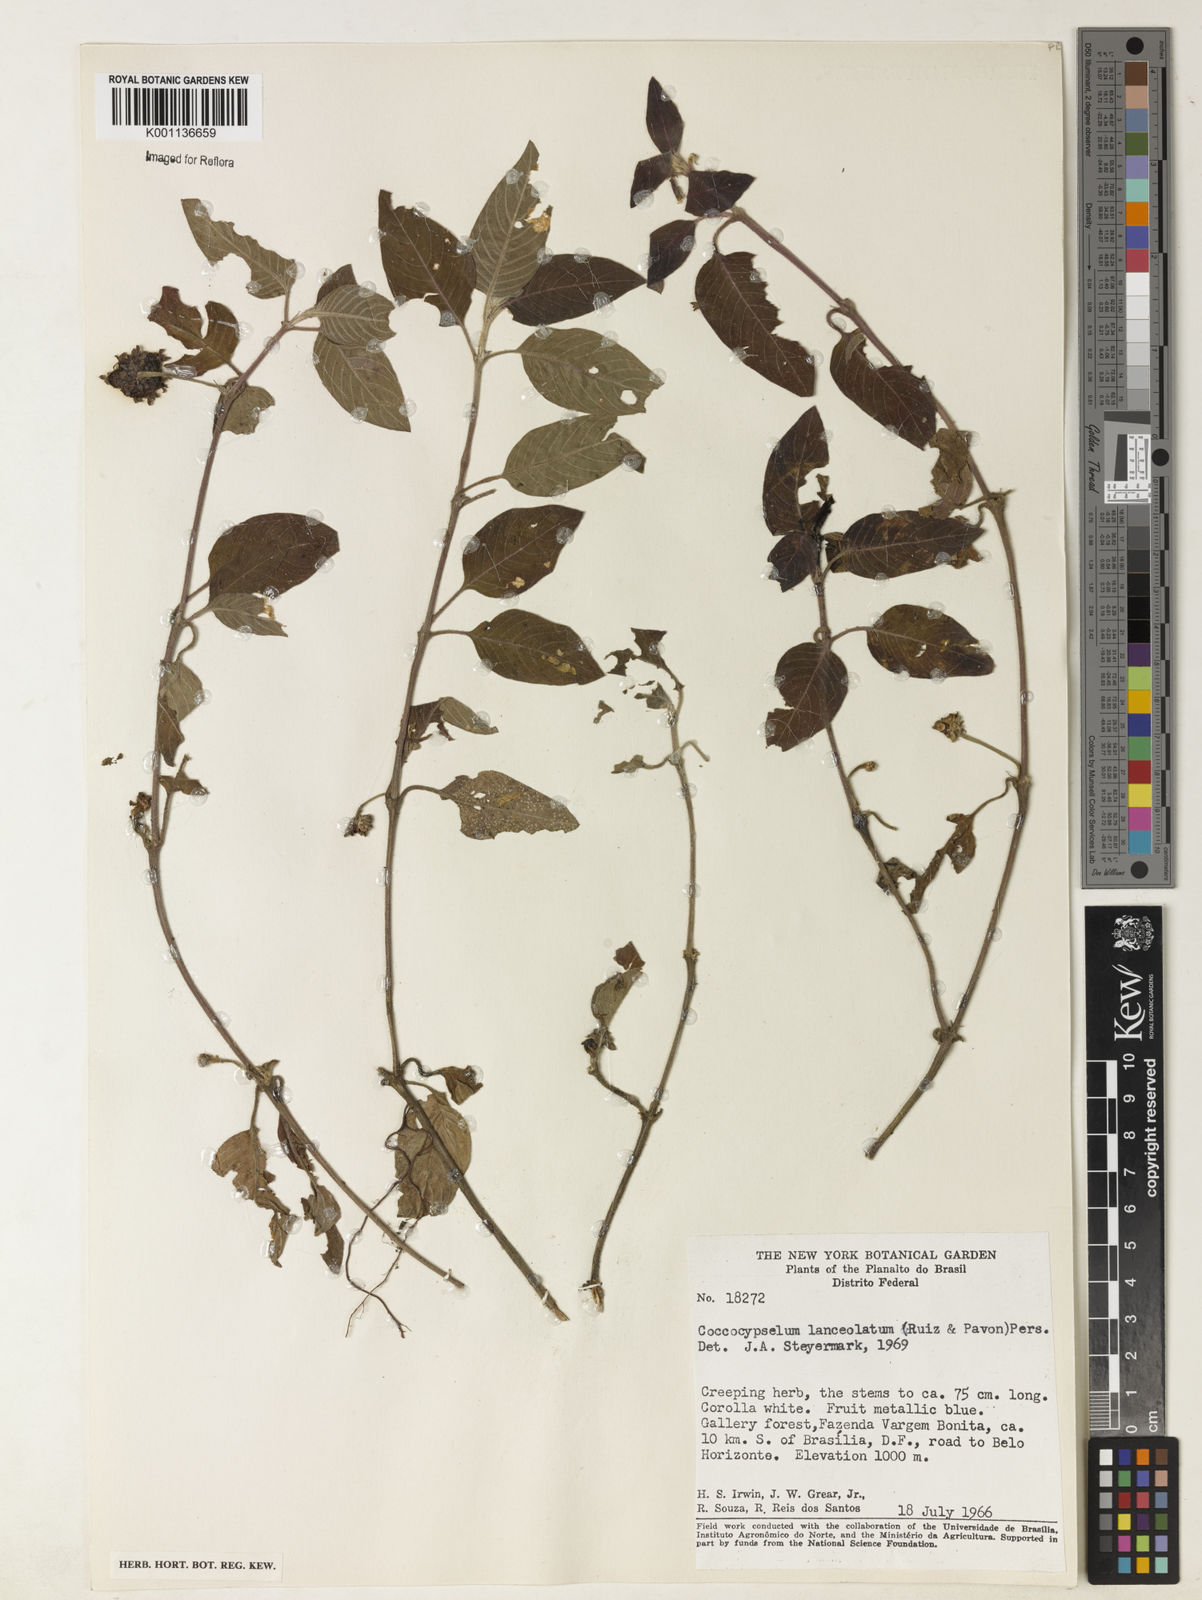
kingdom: Plantae
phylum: Tracheophyta
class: Magnoliopsida
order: Gentianales
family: Rubiaceae
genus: Coccocypselum
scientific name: Coccocypselum lanceolatum
